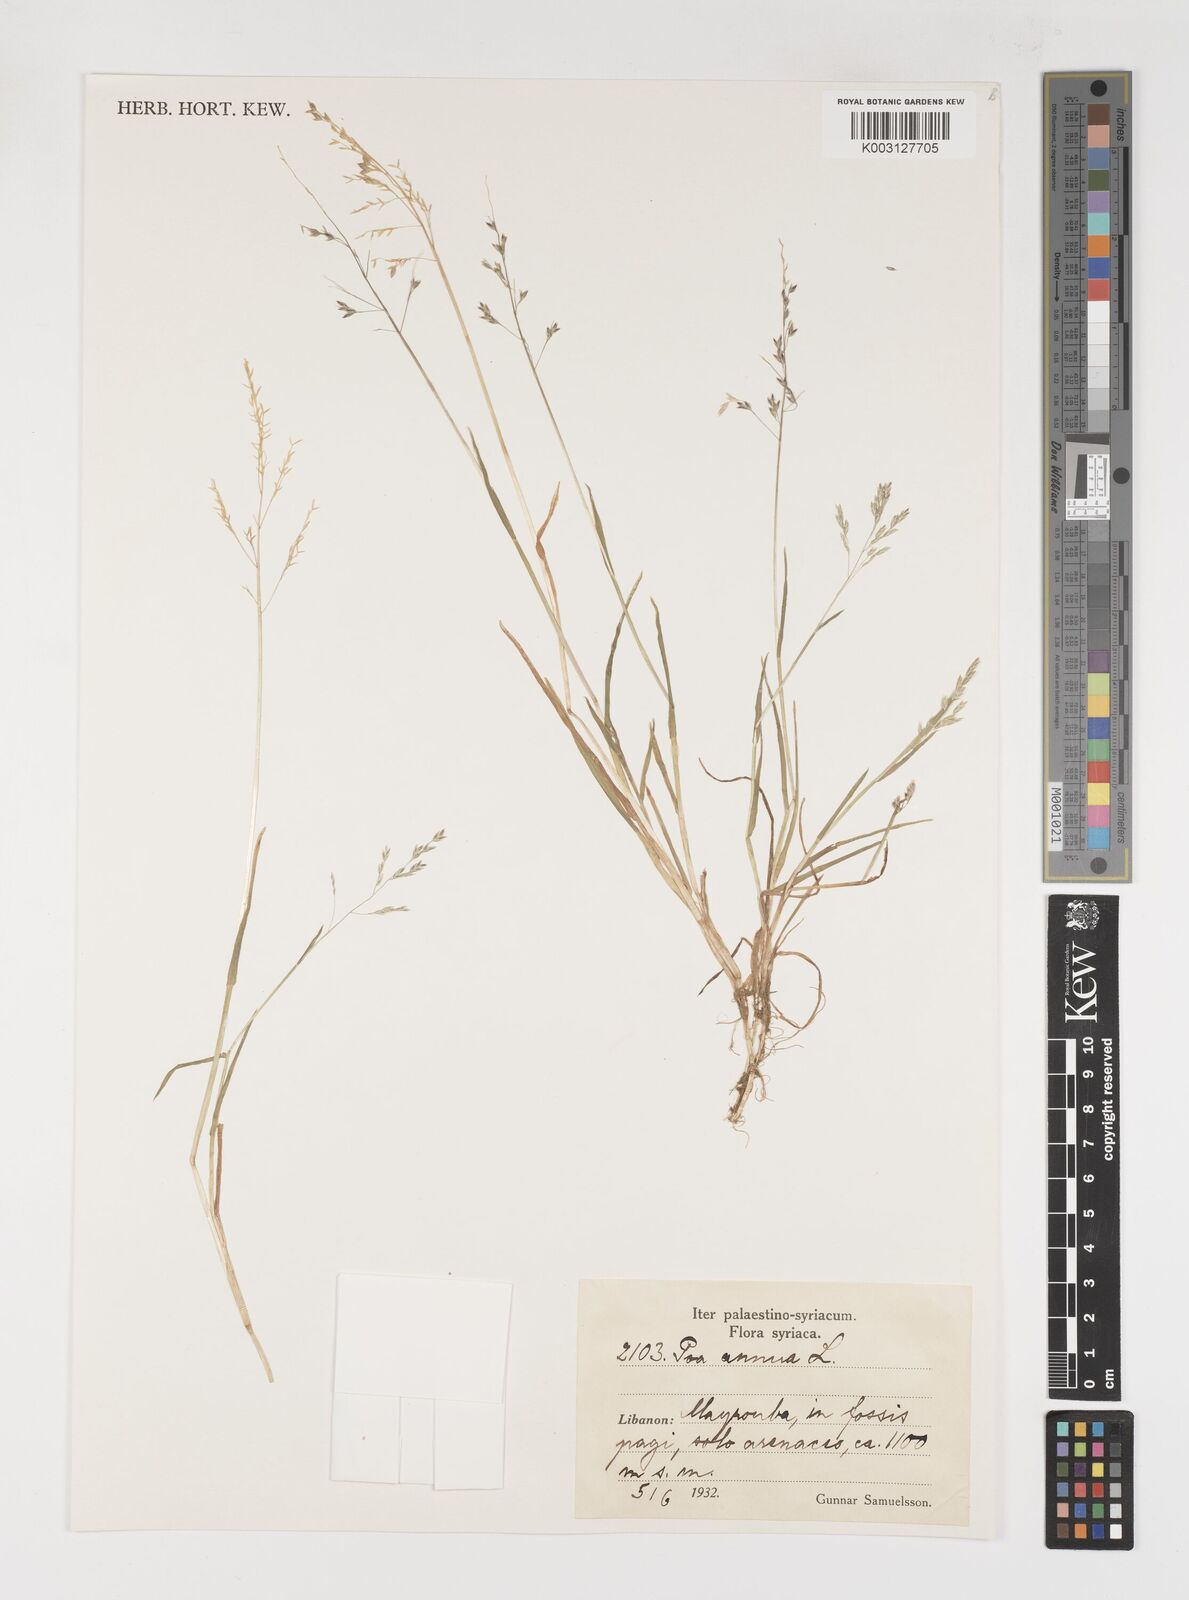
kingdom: Plantae
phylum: Tracheophyta
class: Liliopsida
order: Poales
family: Poaceae
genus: Poa
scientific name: Poa annua
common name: Annual bluegrass
